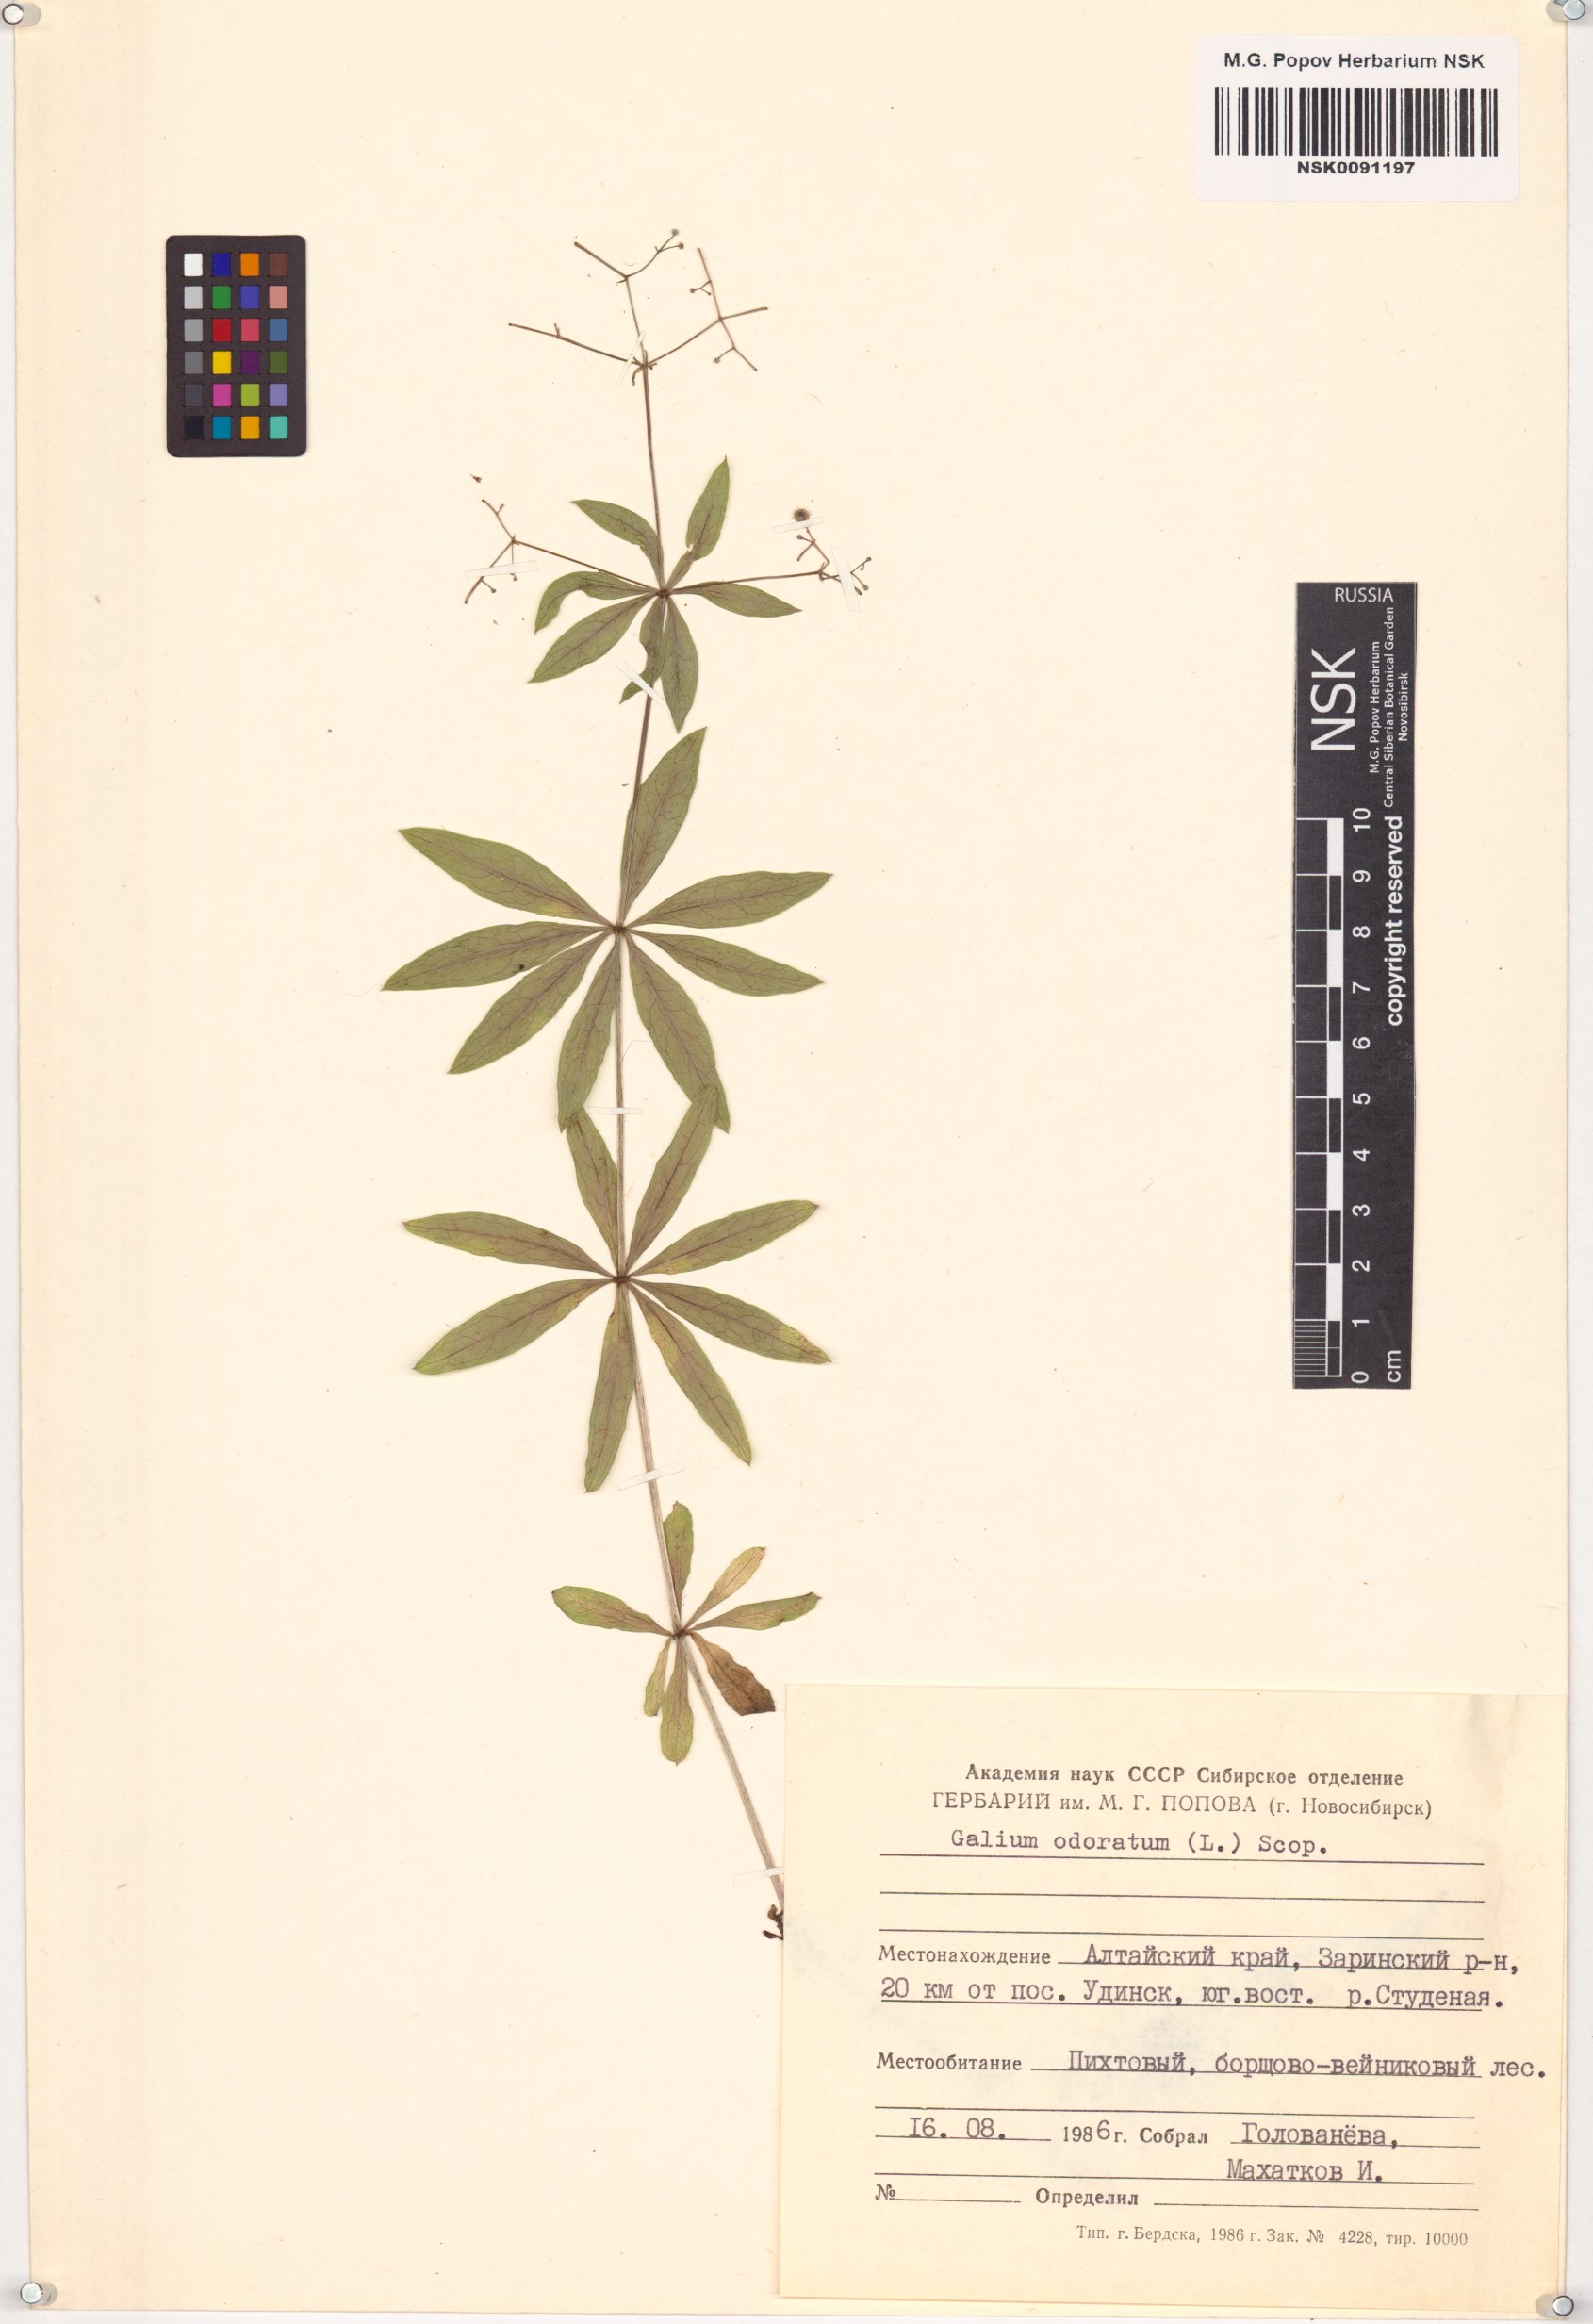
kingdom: Plantae
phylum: Tracheophyta
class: Magnoliopsida
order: Gentianales
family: Rubiaceae
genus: Galium
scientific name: Galium odoratum
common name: Sweet woodruff
